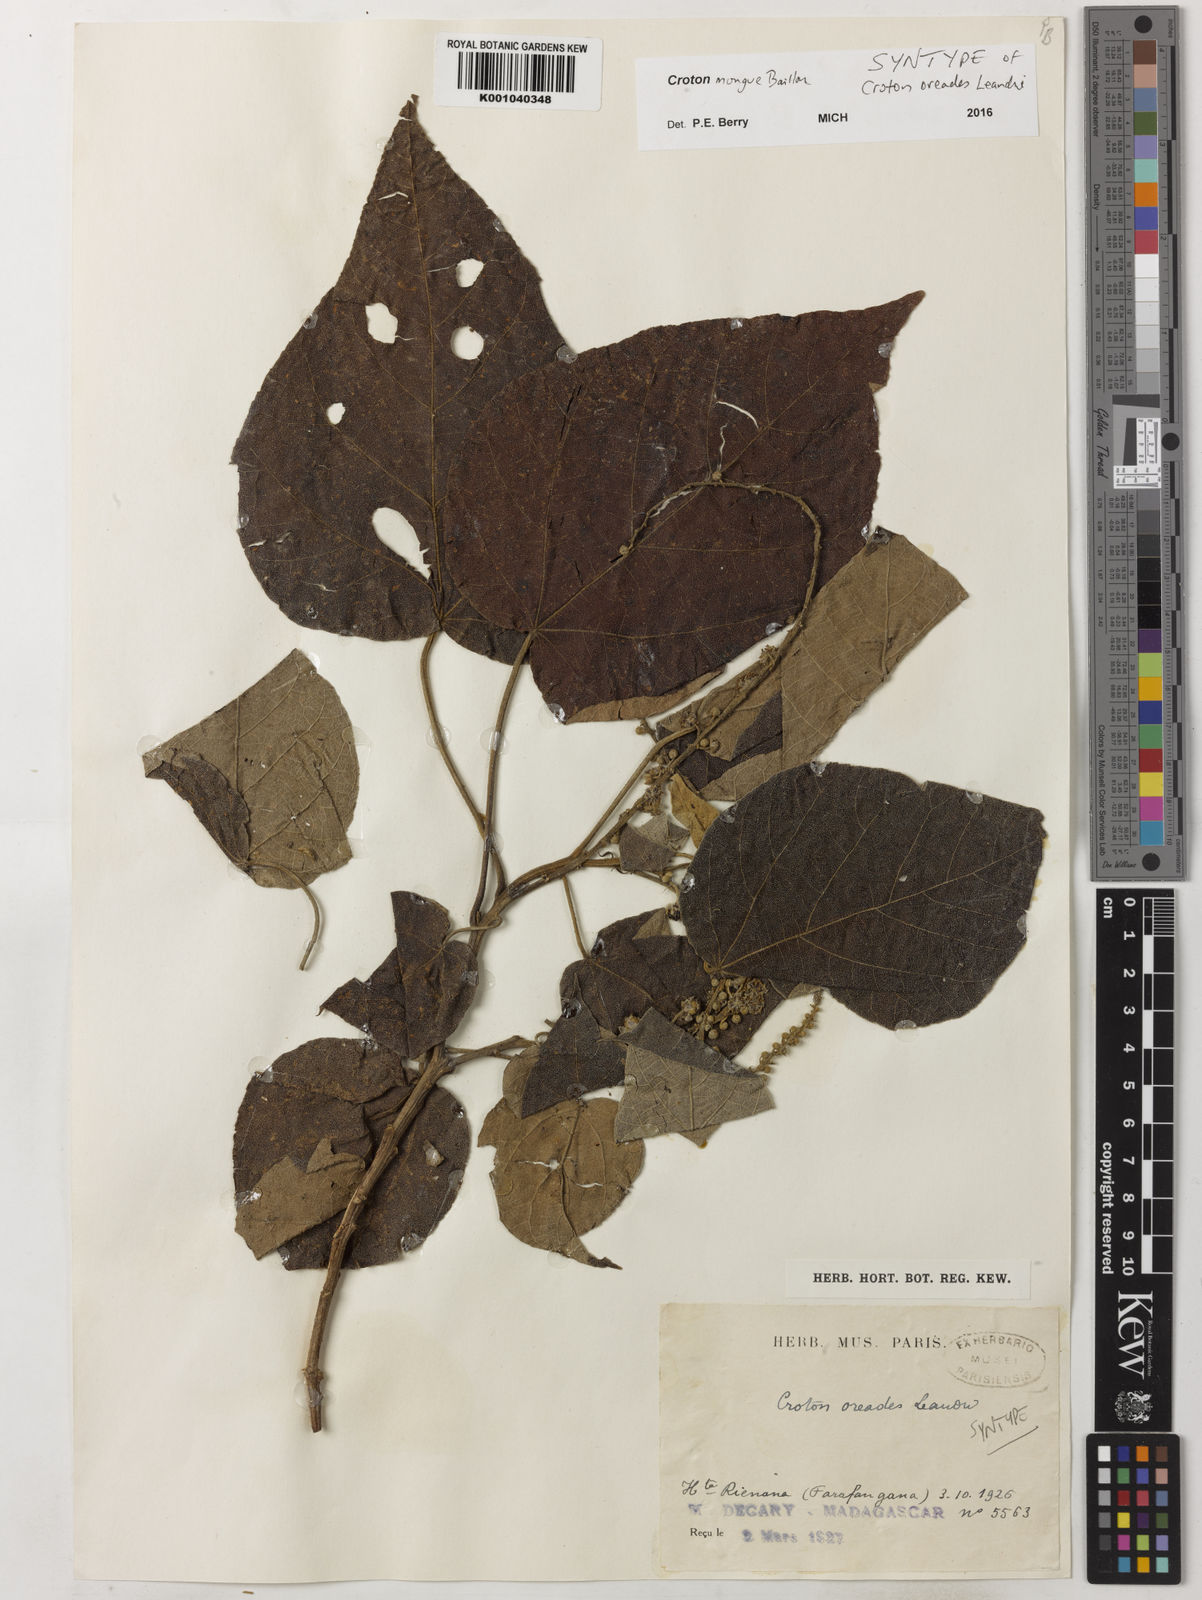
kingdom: Plantae
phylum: Tracheophyta
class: Magnoliopsida
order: Malpighiales
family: Euphorbiaceae
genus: Croton
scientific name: Croton mongue
